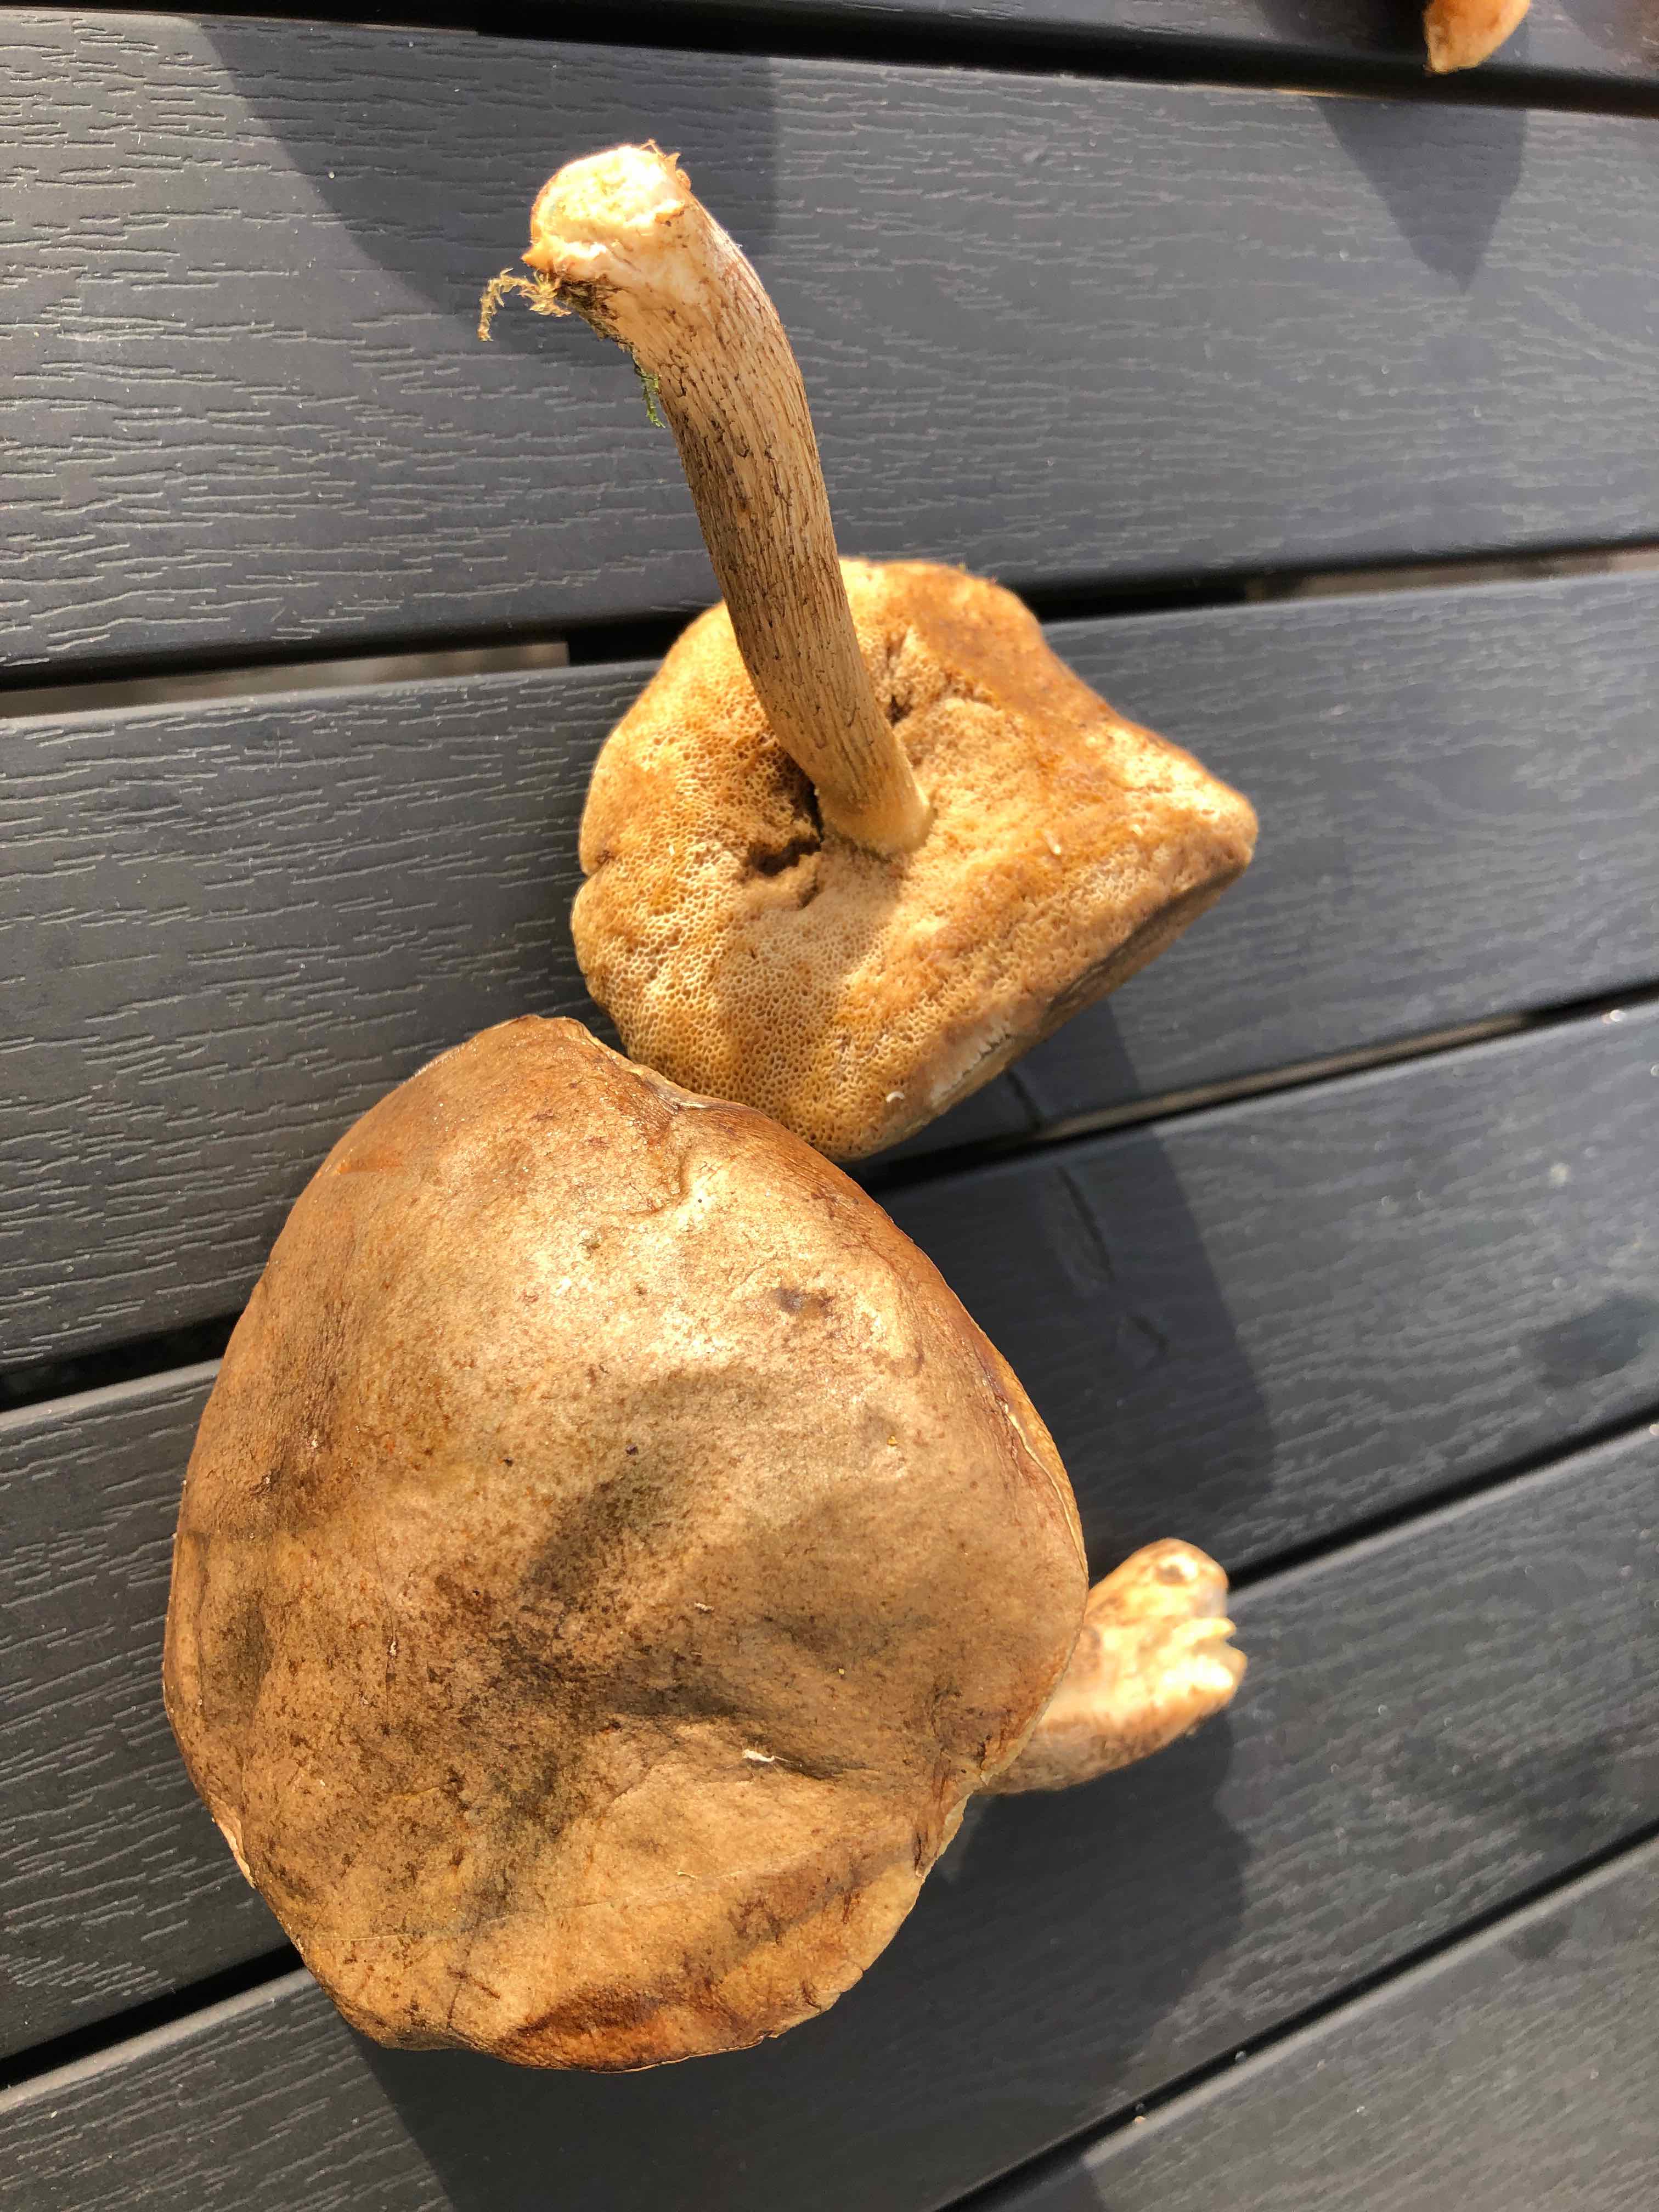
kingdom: Fungi
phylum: Basidiomycota
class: Agaricomycetes
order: Boletales
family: Boletaceae
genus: Leccinum
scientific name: Leccinum
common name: skælrørhat
